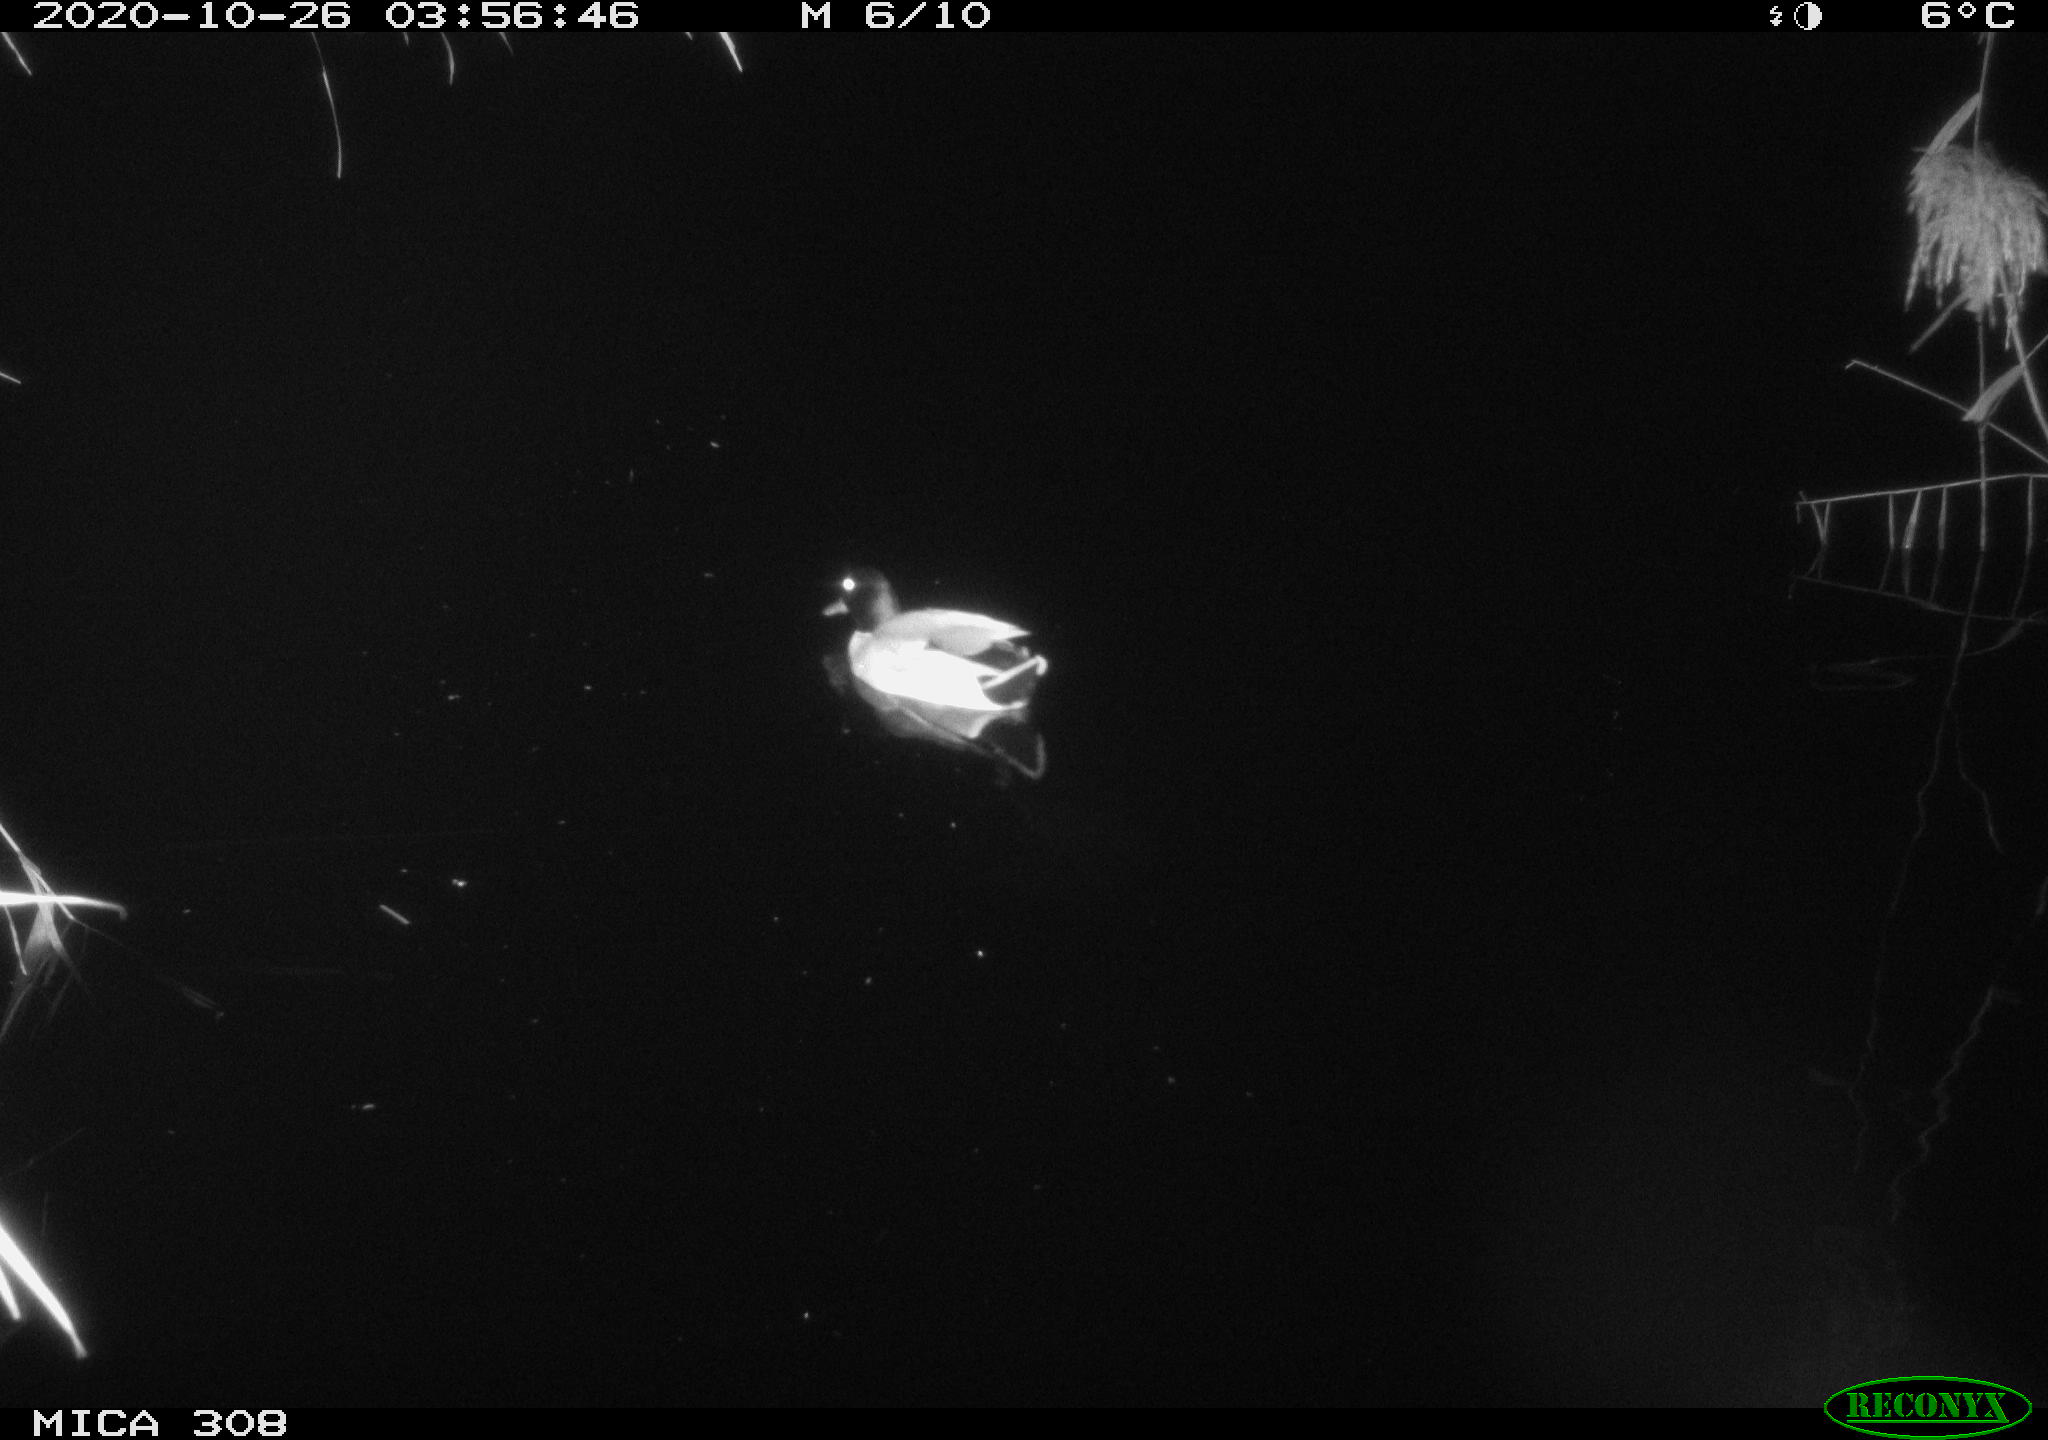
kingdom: Animalia
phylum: Chordata
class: Aves
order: Anseriformes
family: Anatidae
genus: Anas
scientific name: Anas platyrhynchos
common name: Mallard
